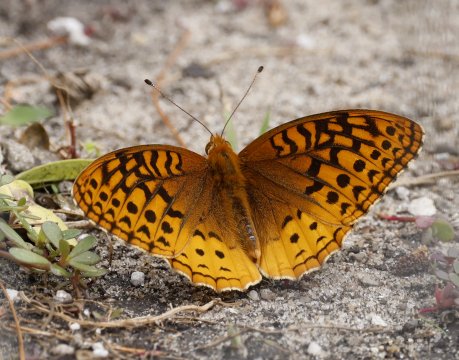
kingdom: Animalia
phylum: Arthropoda
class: Insecta
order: Lepidoptera
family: Nymphalidae
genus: Speyeria
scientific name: Speyeria cybele
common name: Great Spangled Fritillary
